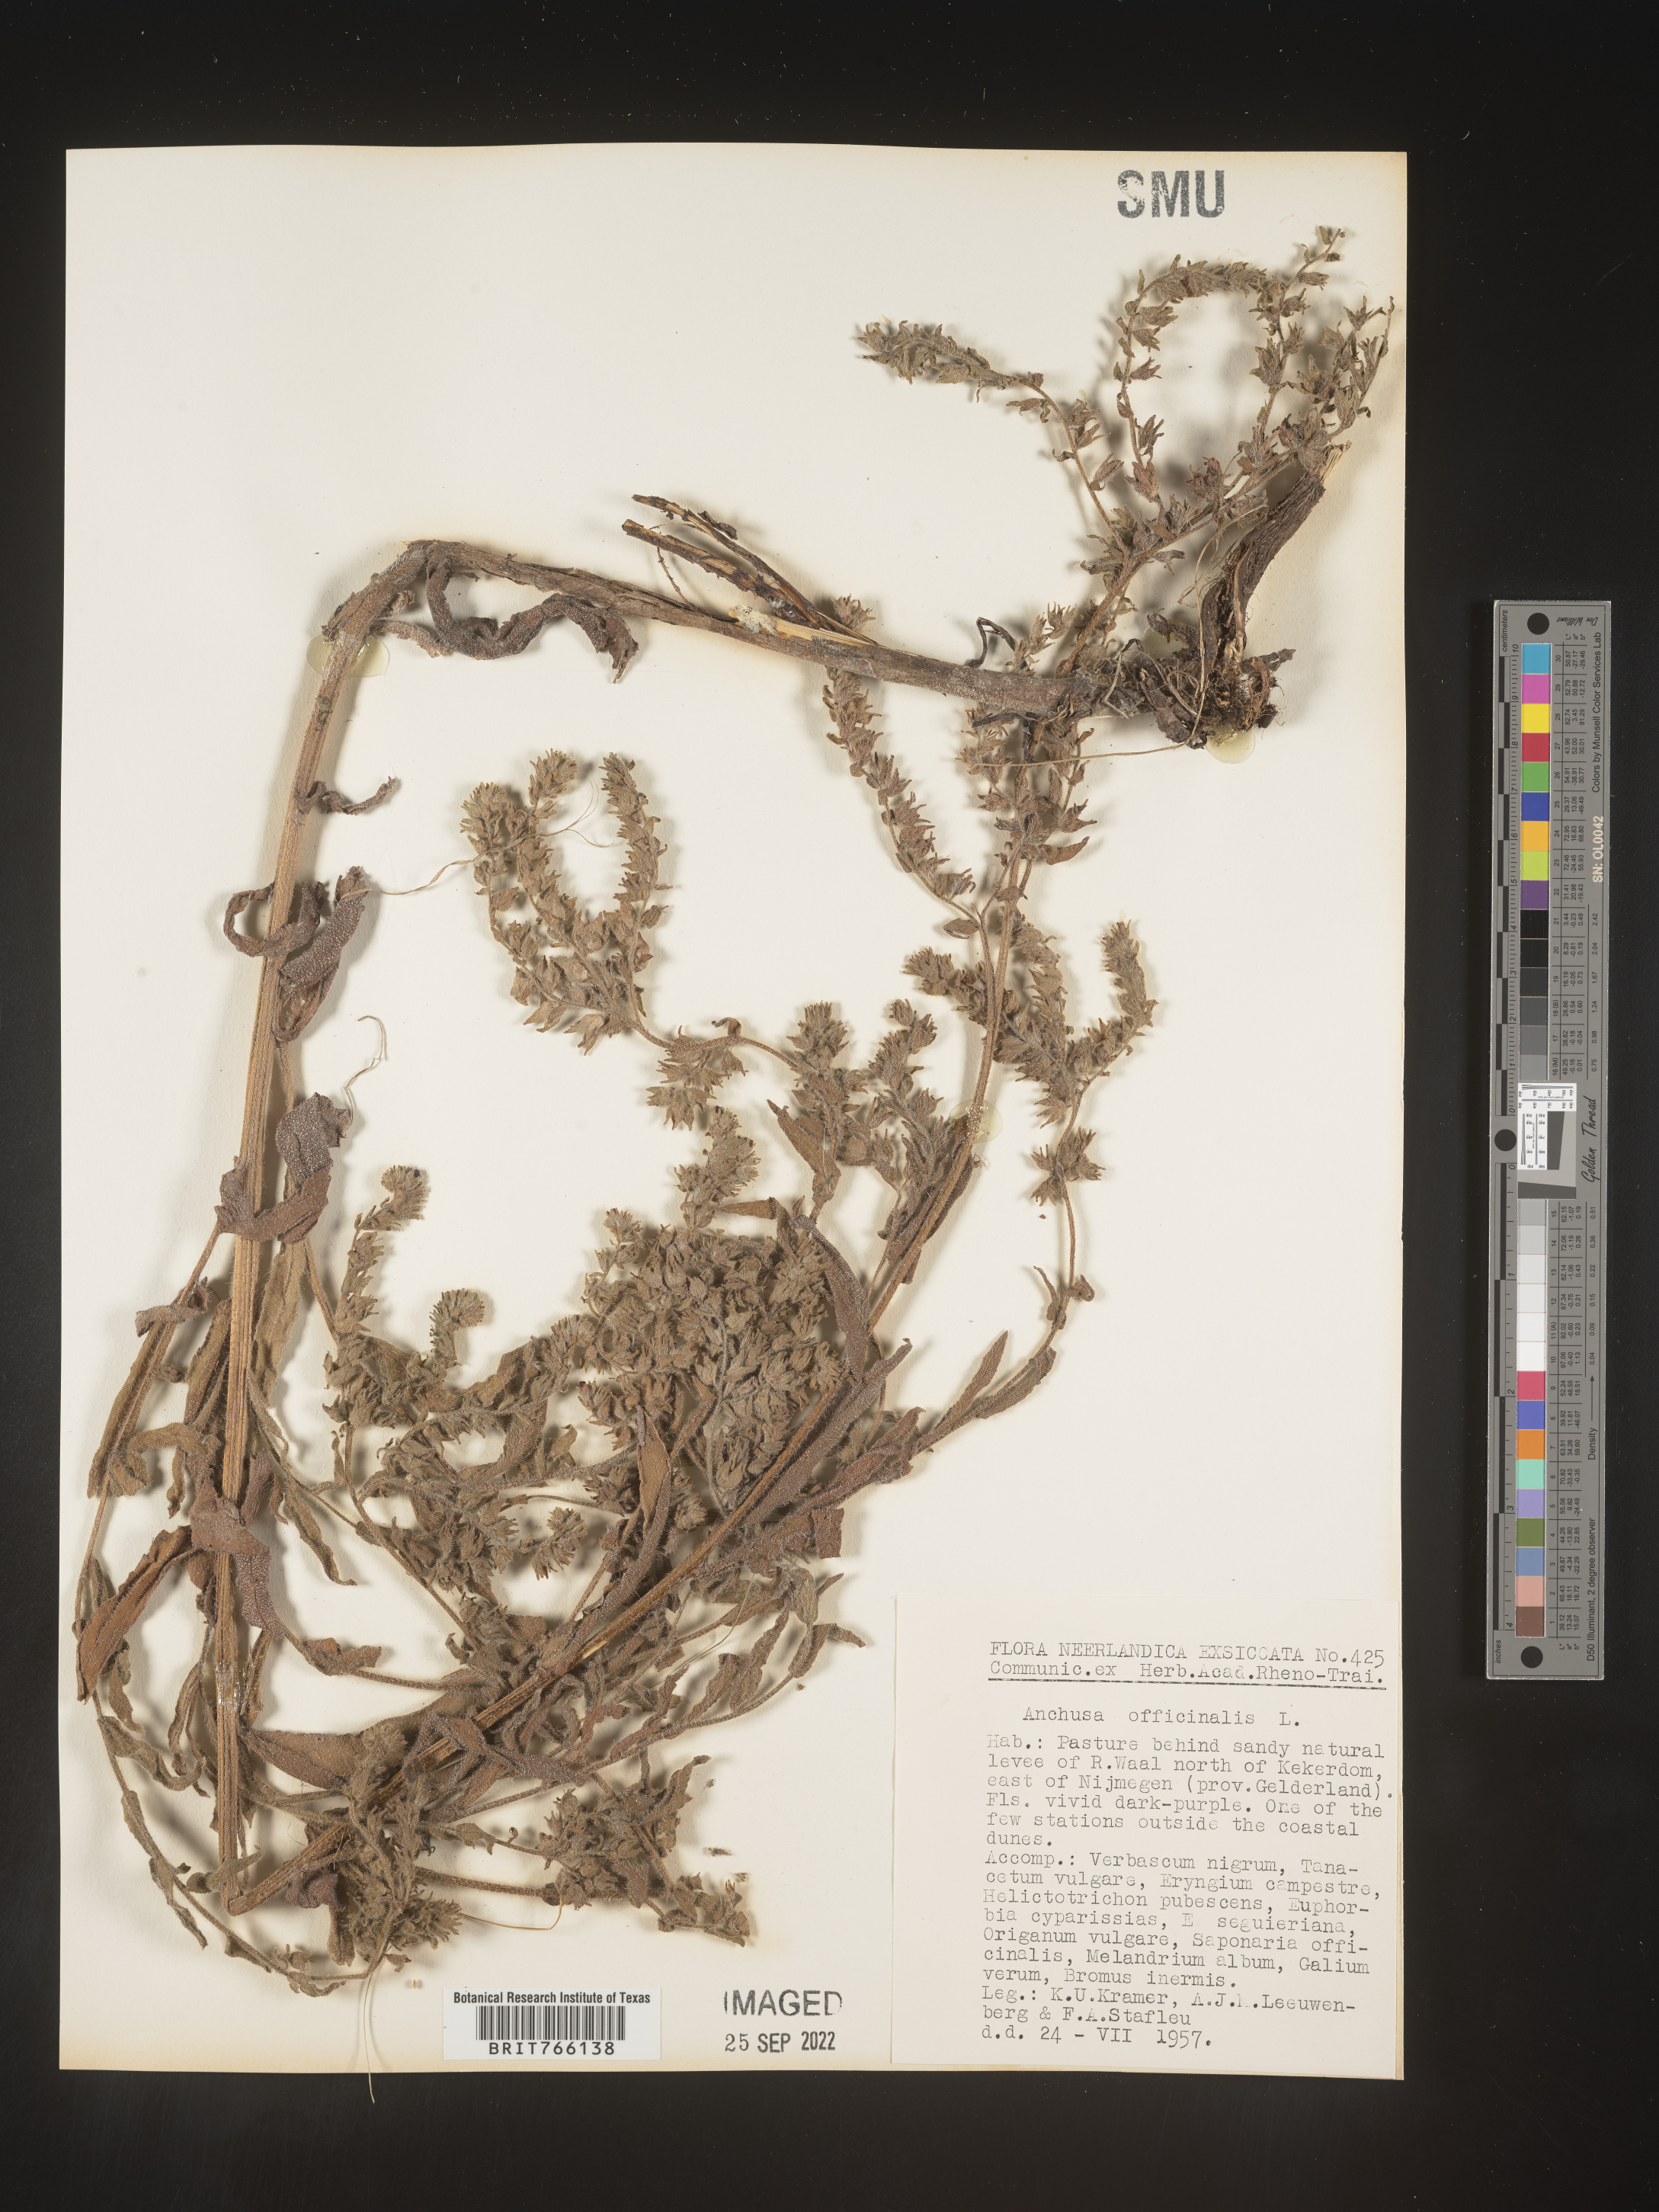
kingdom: Plantae
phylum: Tracheophyta
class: Magnoliopsida
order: Boraginales
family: Boraginaceae
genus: Anchusa
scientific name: Anchusa
